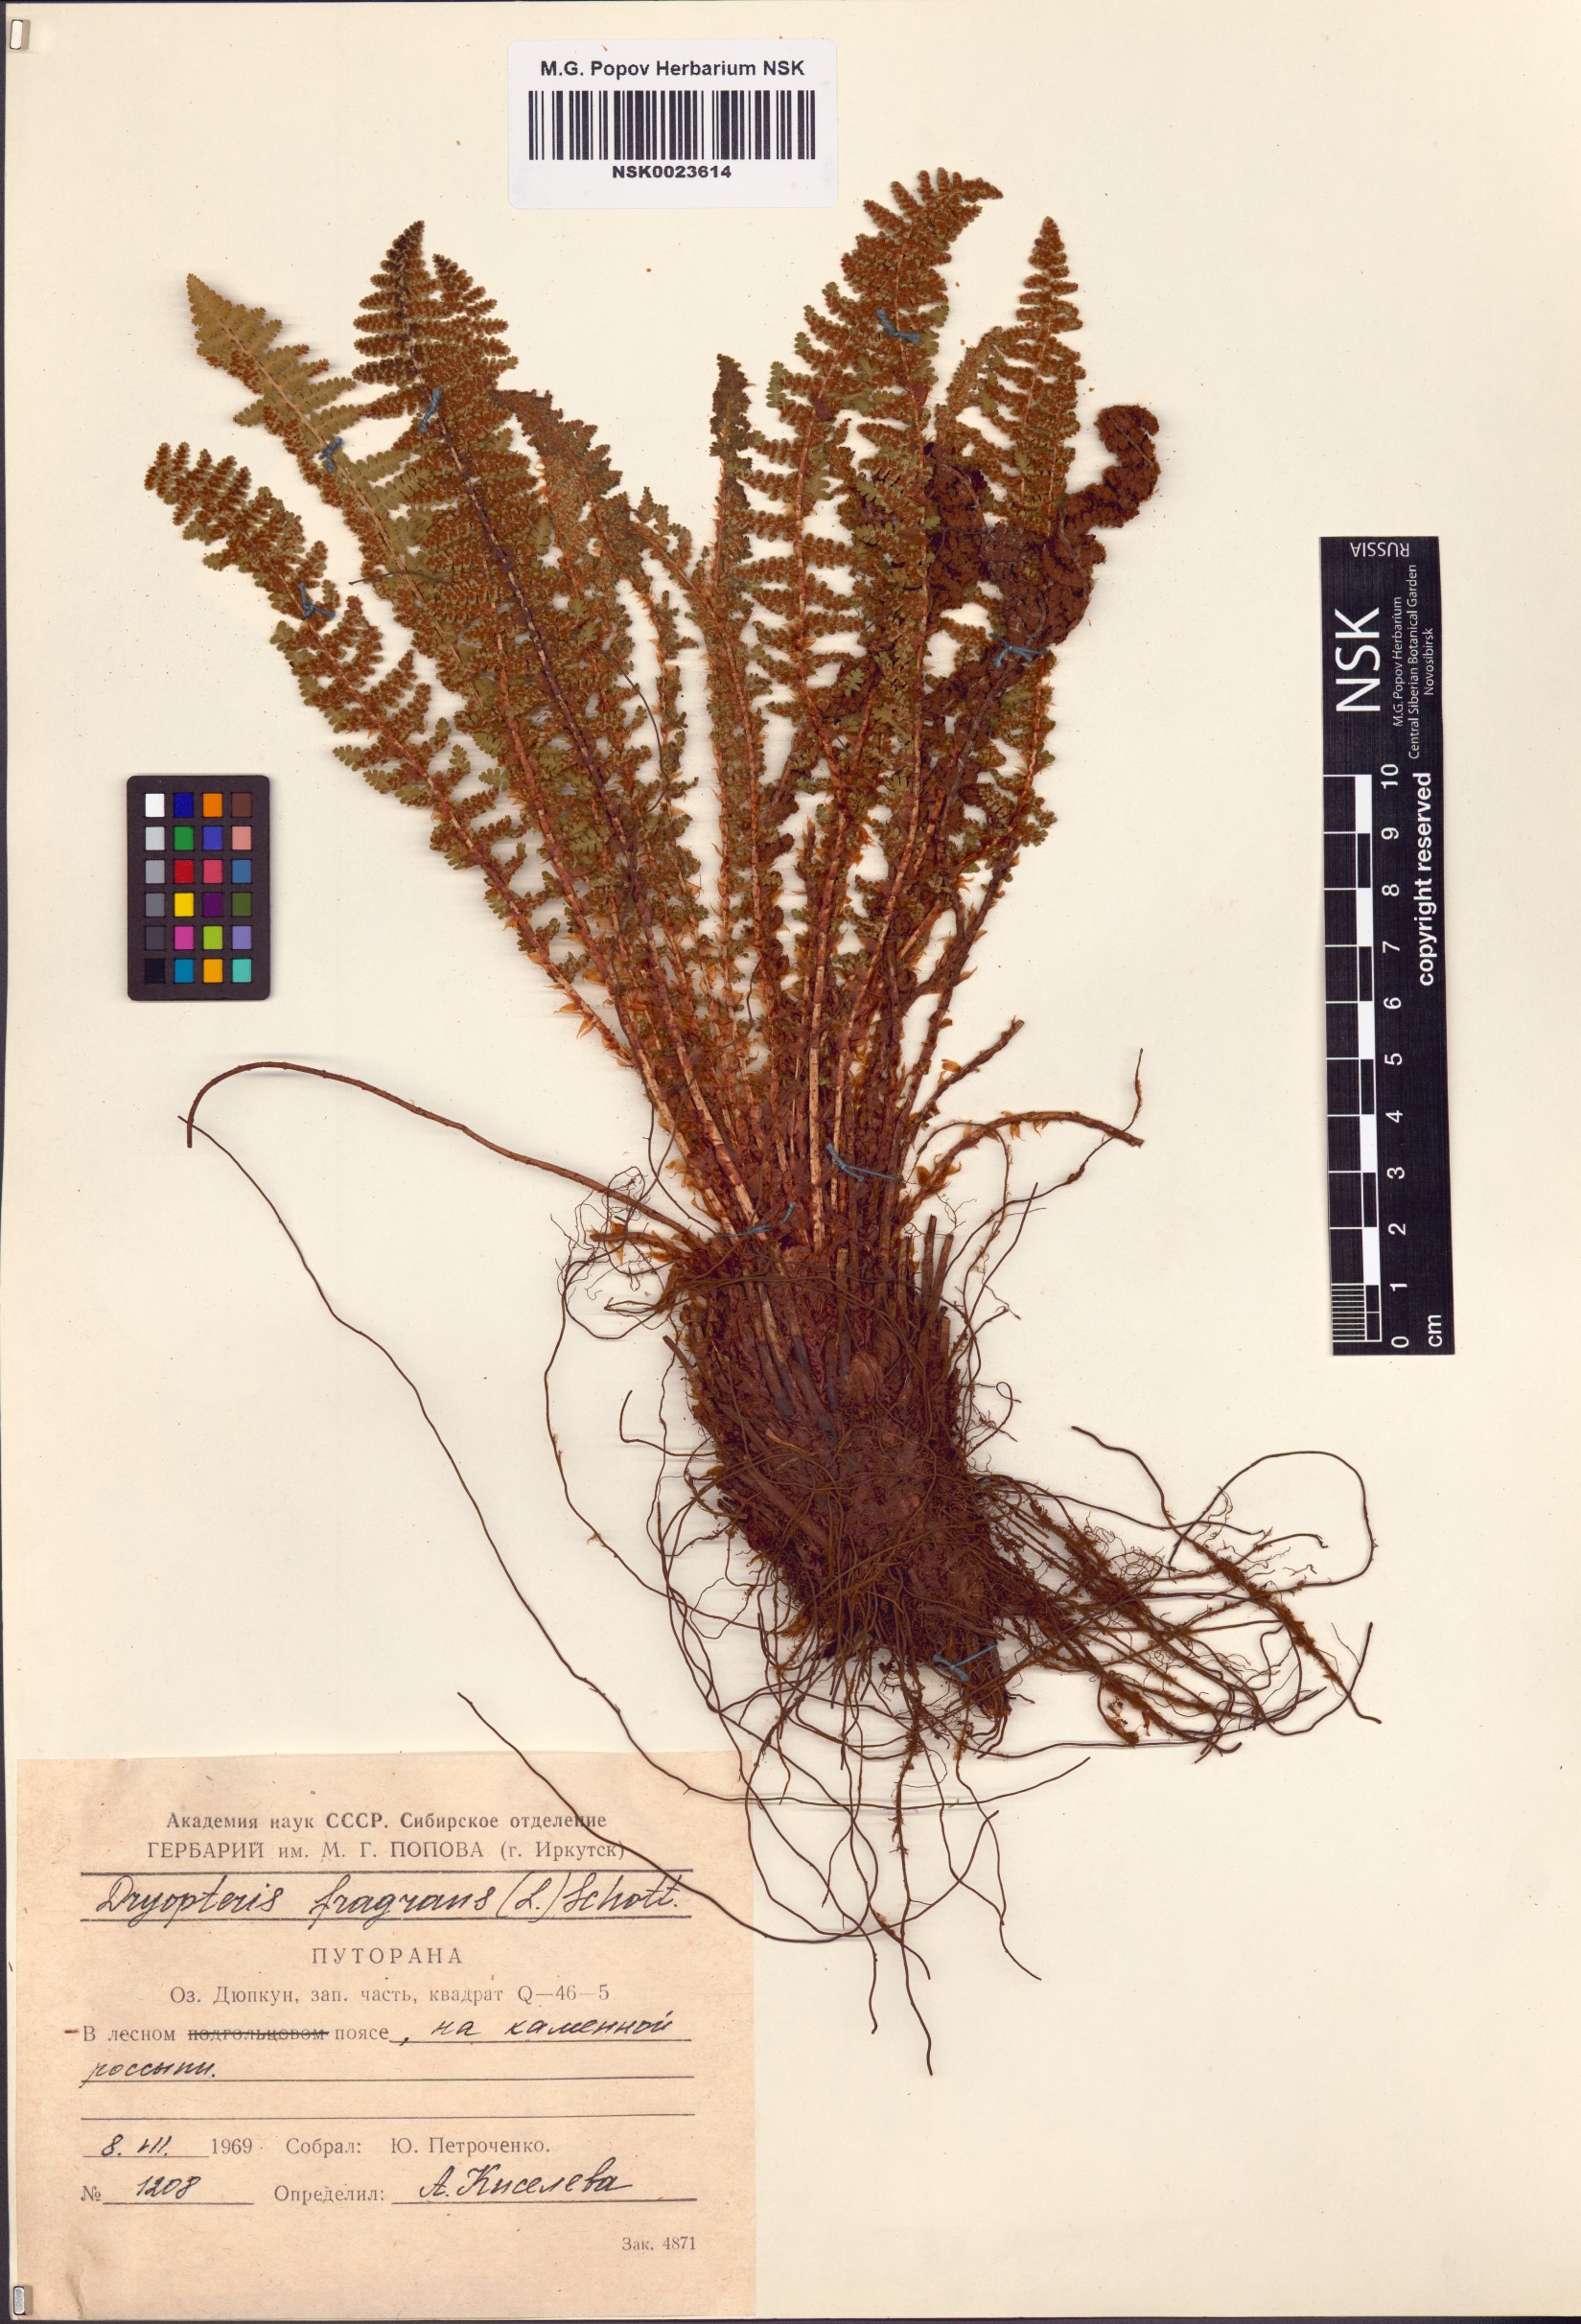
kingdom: Plantae
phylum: Tracheophyta
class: Polypodiopsida
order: Polypodiales
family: Dryopteridaceae
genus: Dryopteris
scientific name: Dryopteris fragrans
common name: Fragrant wood fern
